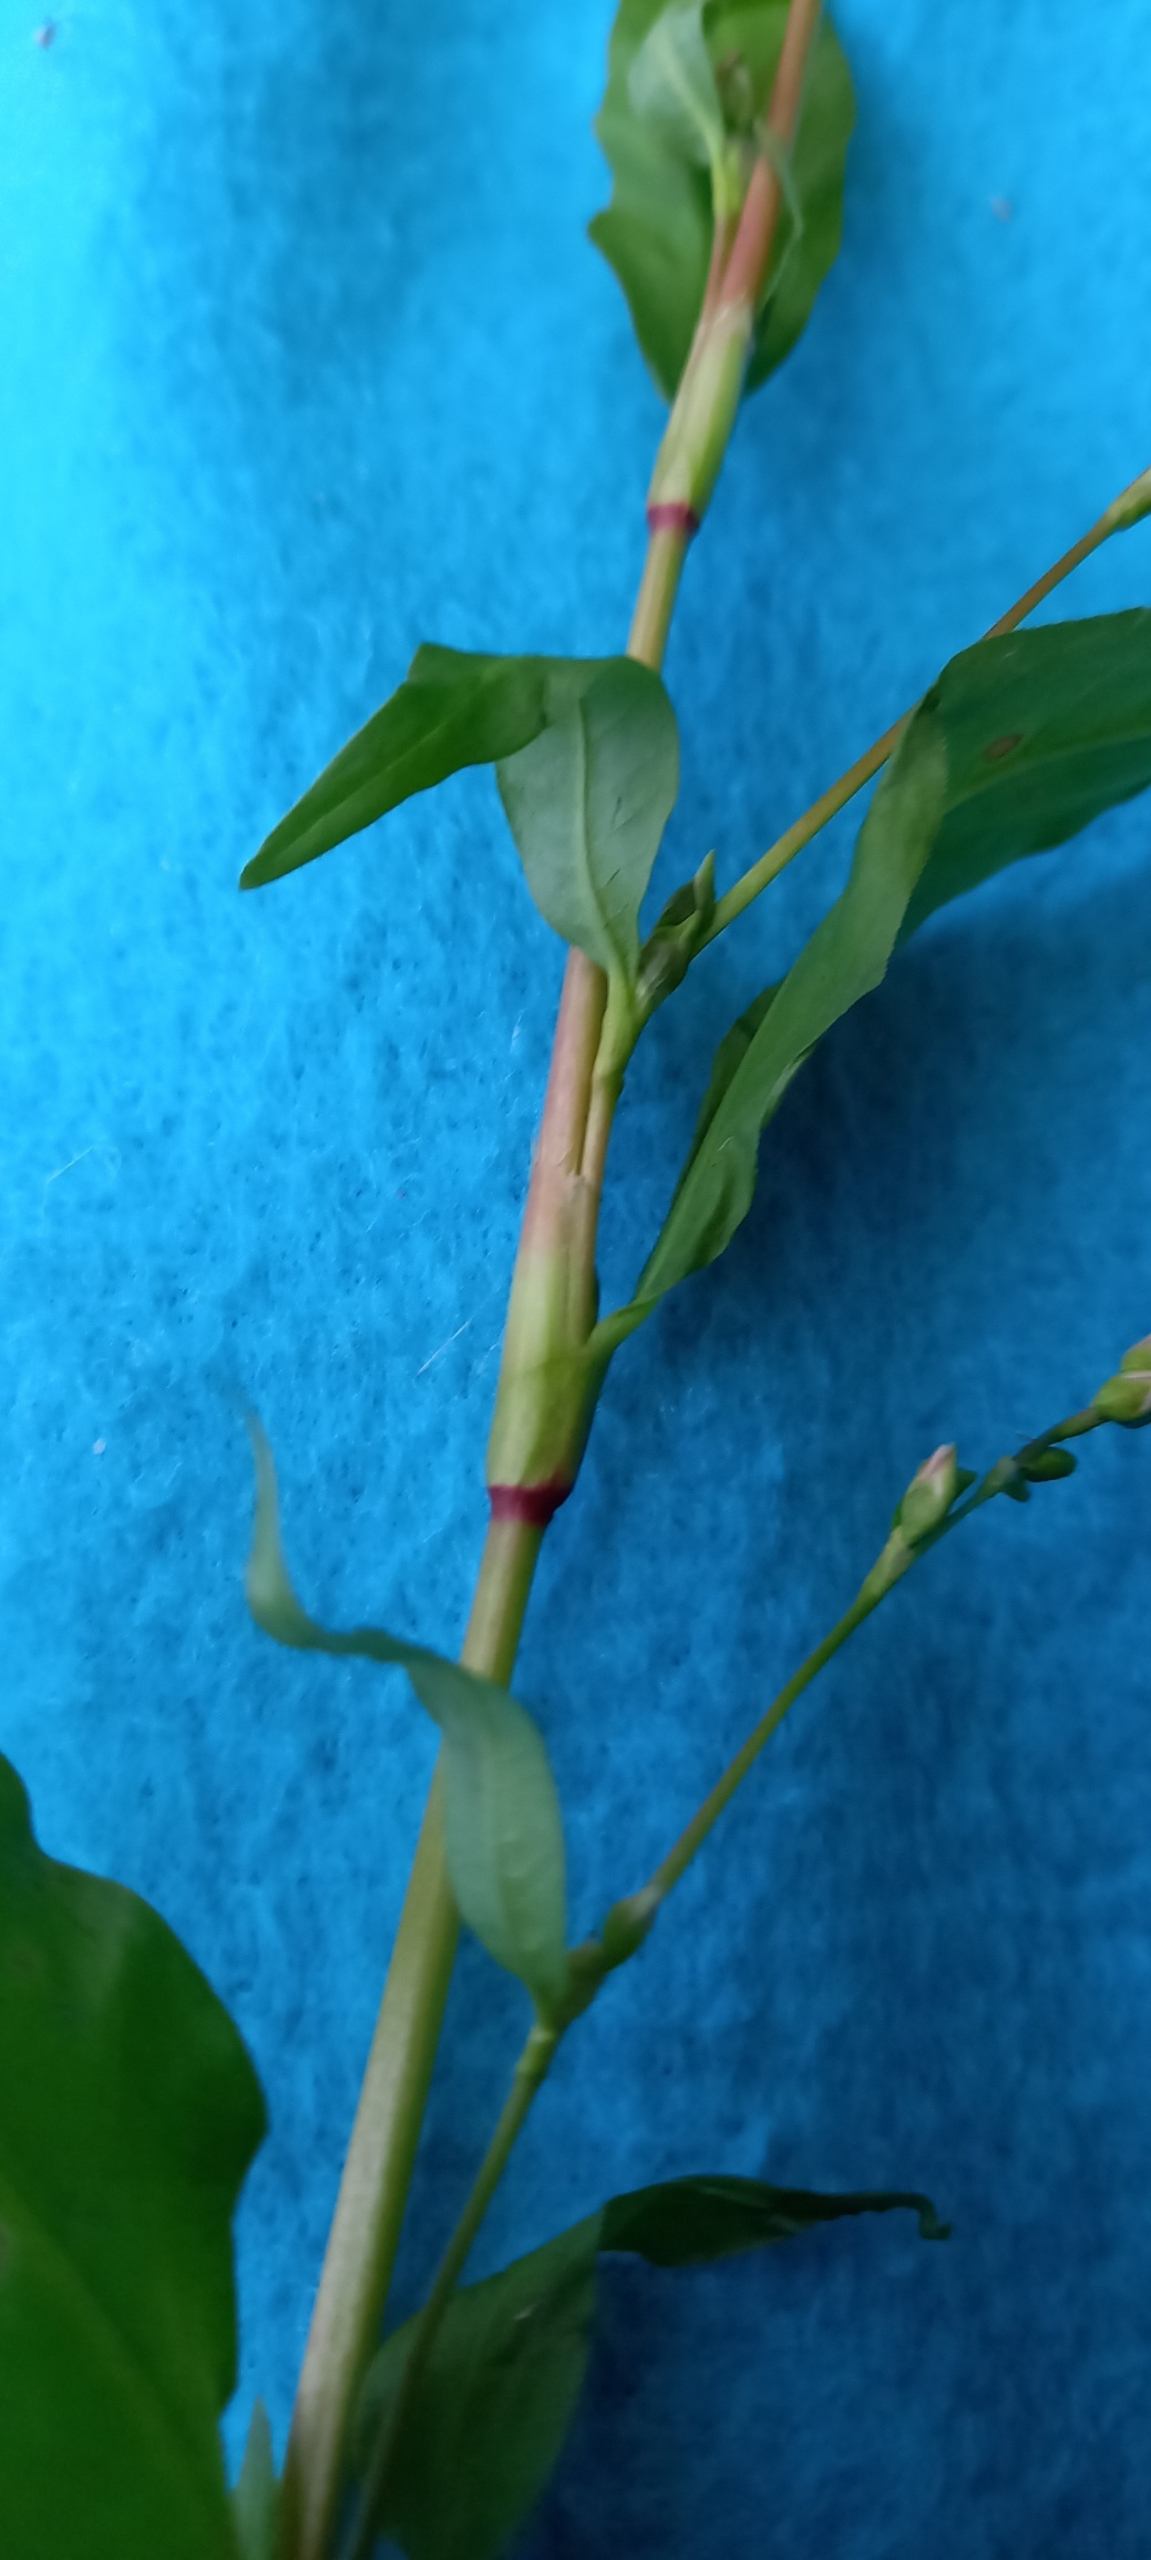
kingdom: Plantae
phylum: Tracheophyta
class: Magnoliopsida
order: Caryophyllales
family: Polygonaceae
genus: Persicaria
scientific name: Persicaria hydropiper
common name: Bidende pileurt
